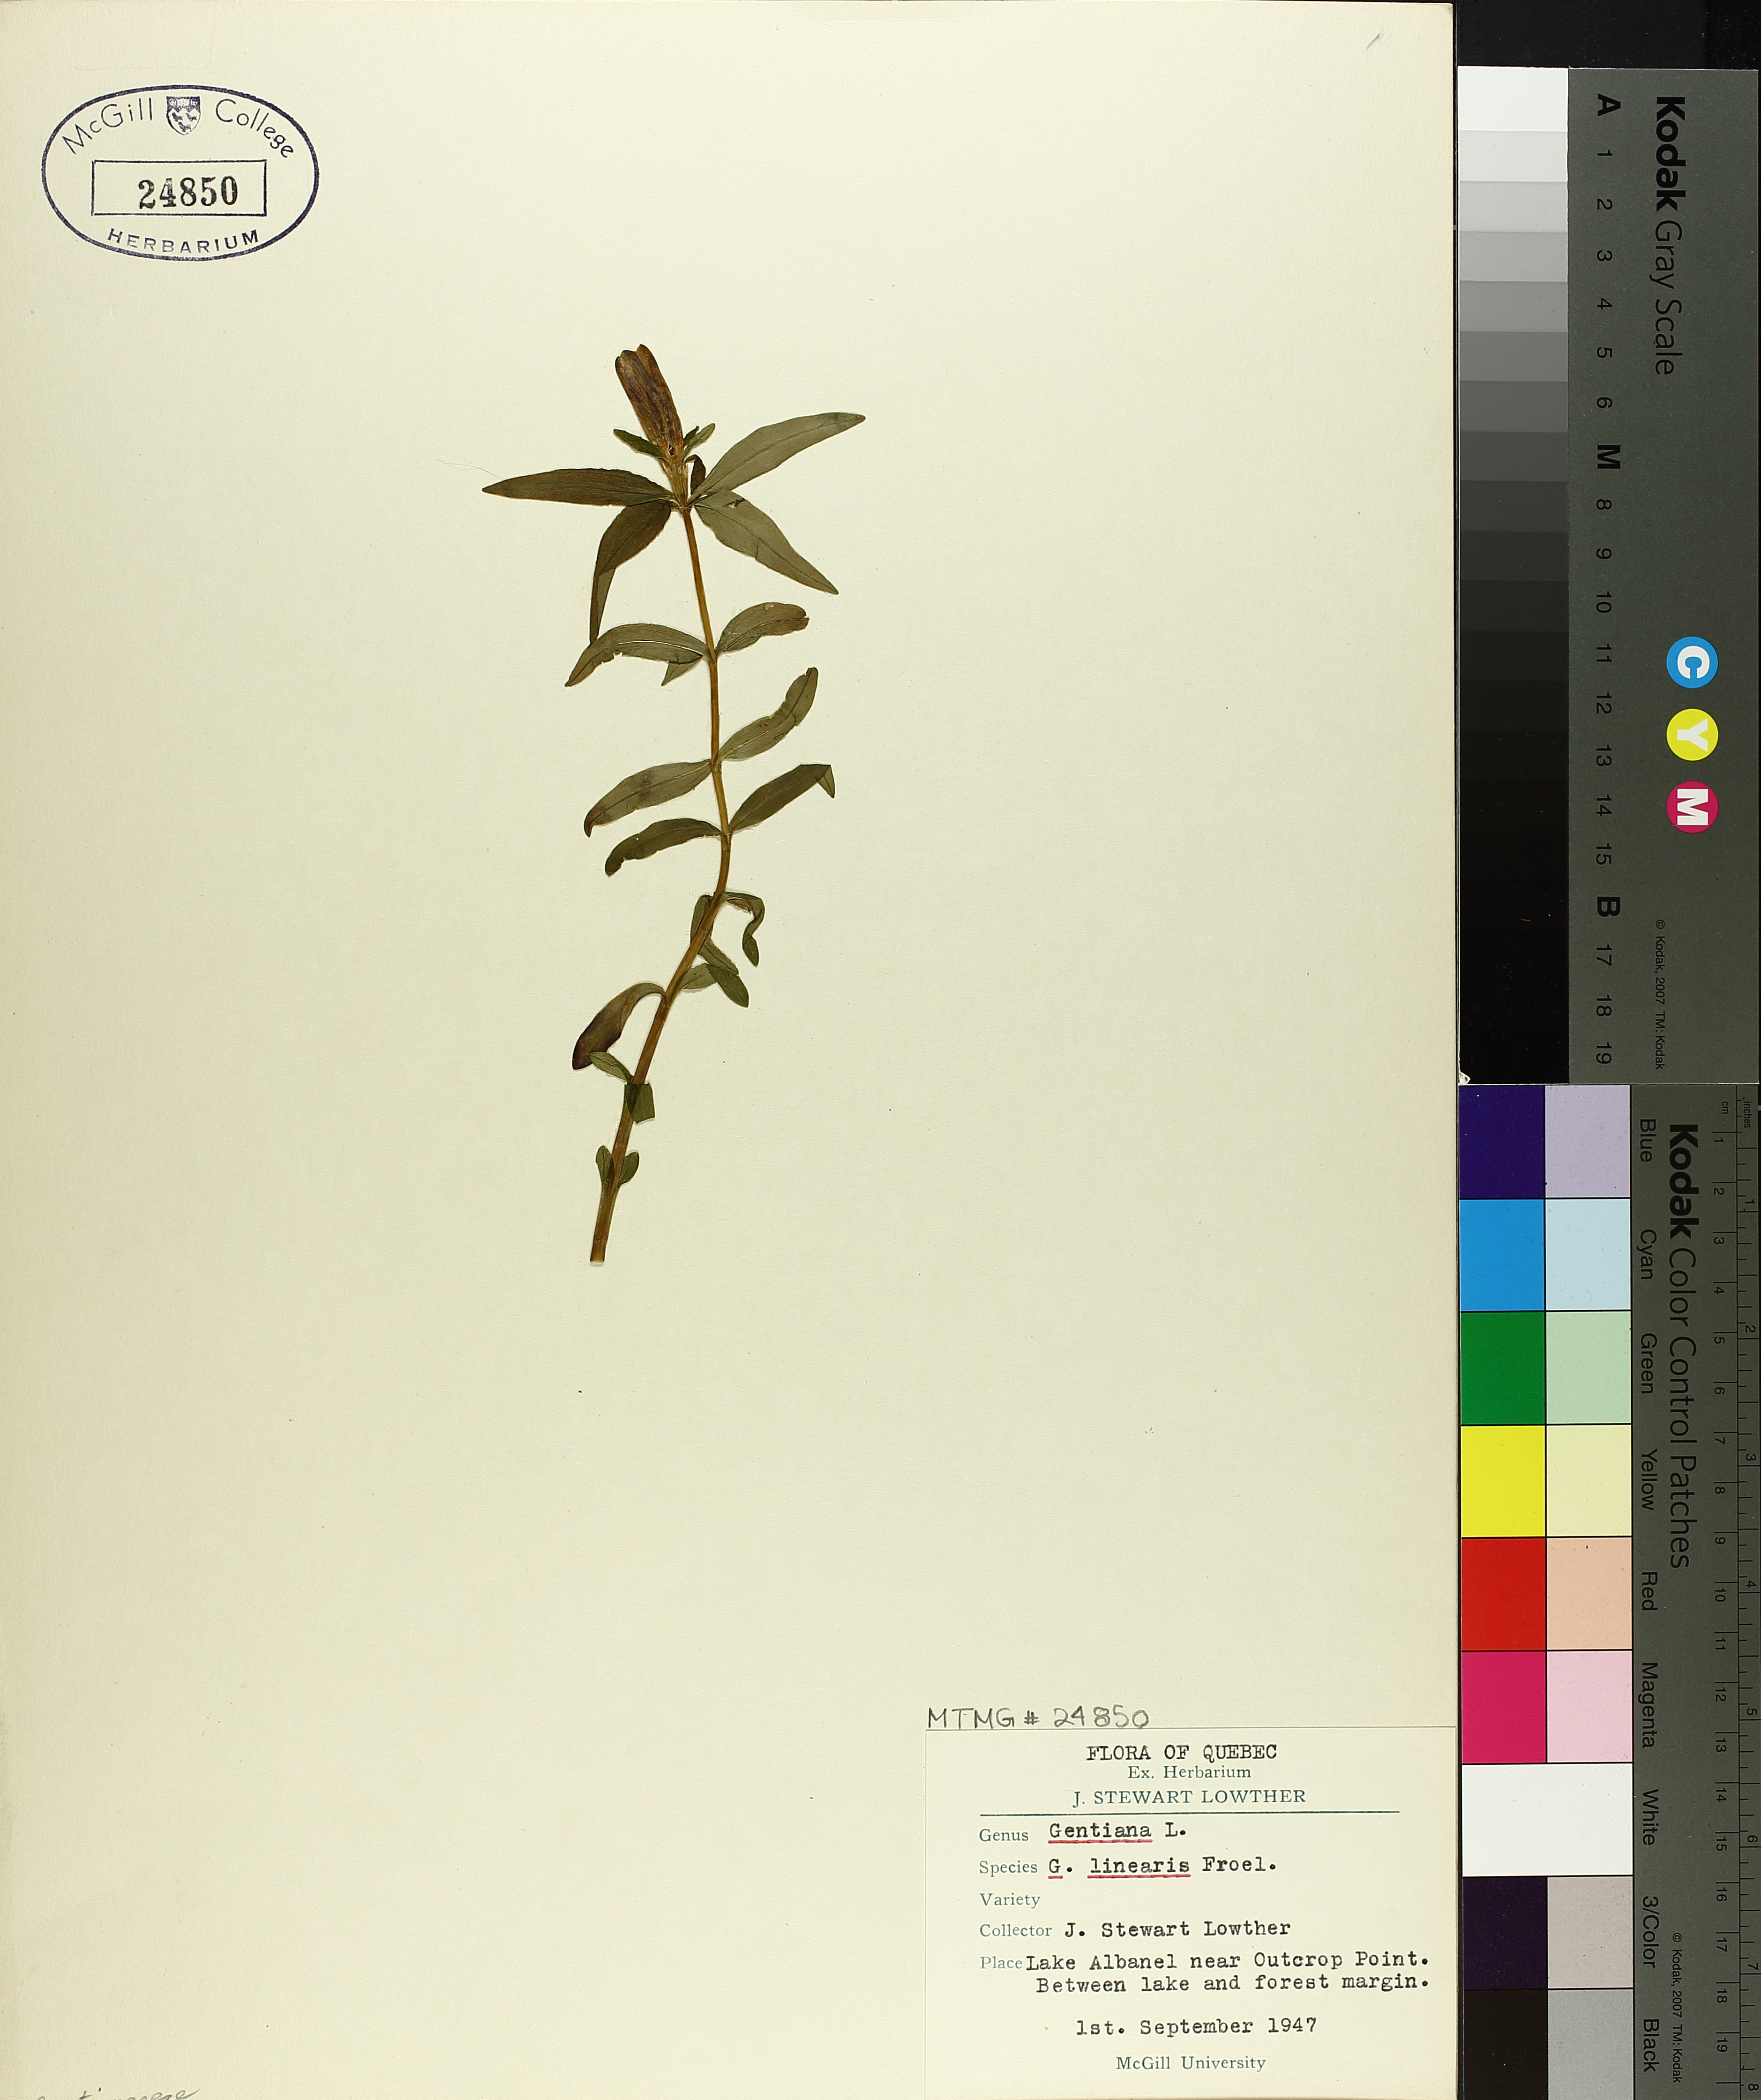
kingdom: Plantae
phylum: Tracheophyta
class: Magnoliopsida
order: Gentianales
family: Gentianaceae
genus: Gentiana
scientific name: Gentiana linearis
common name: Bastard gentian
